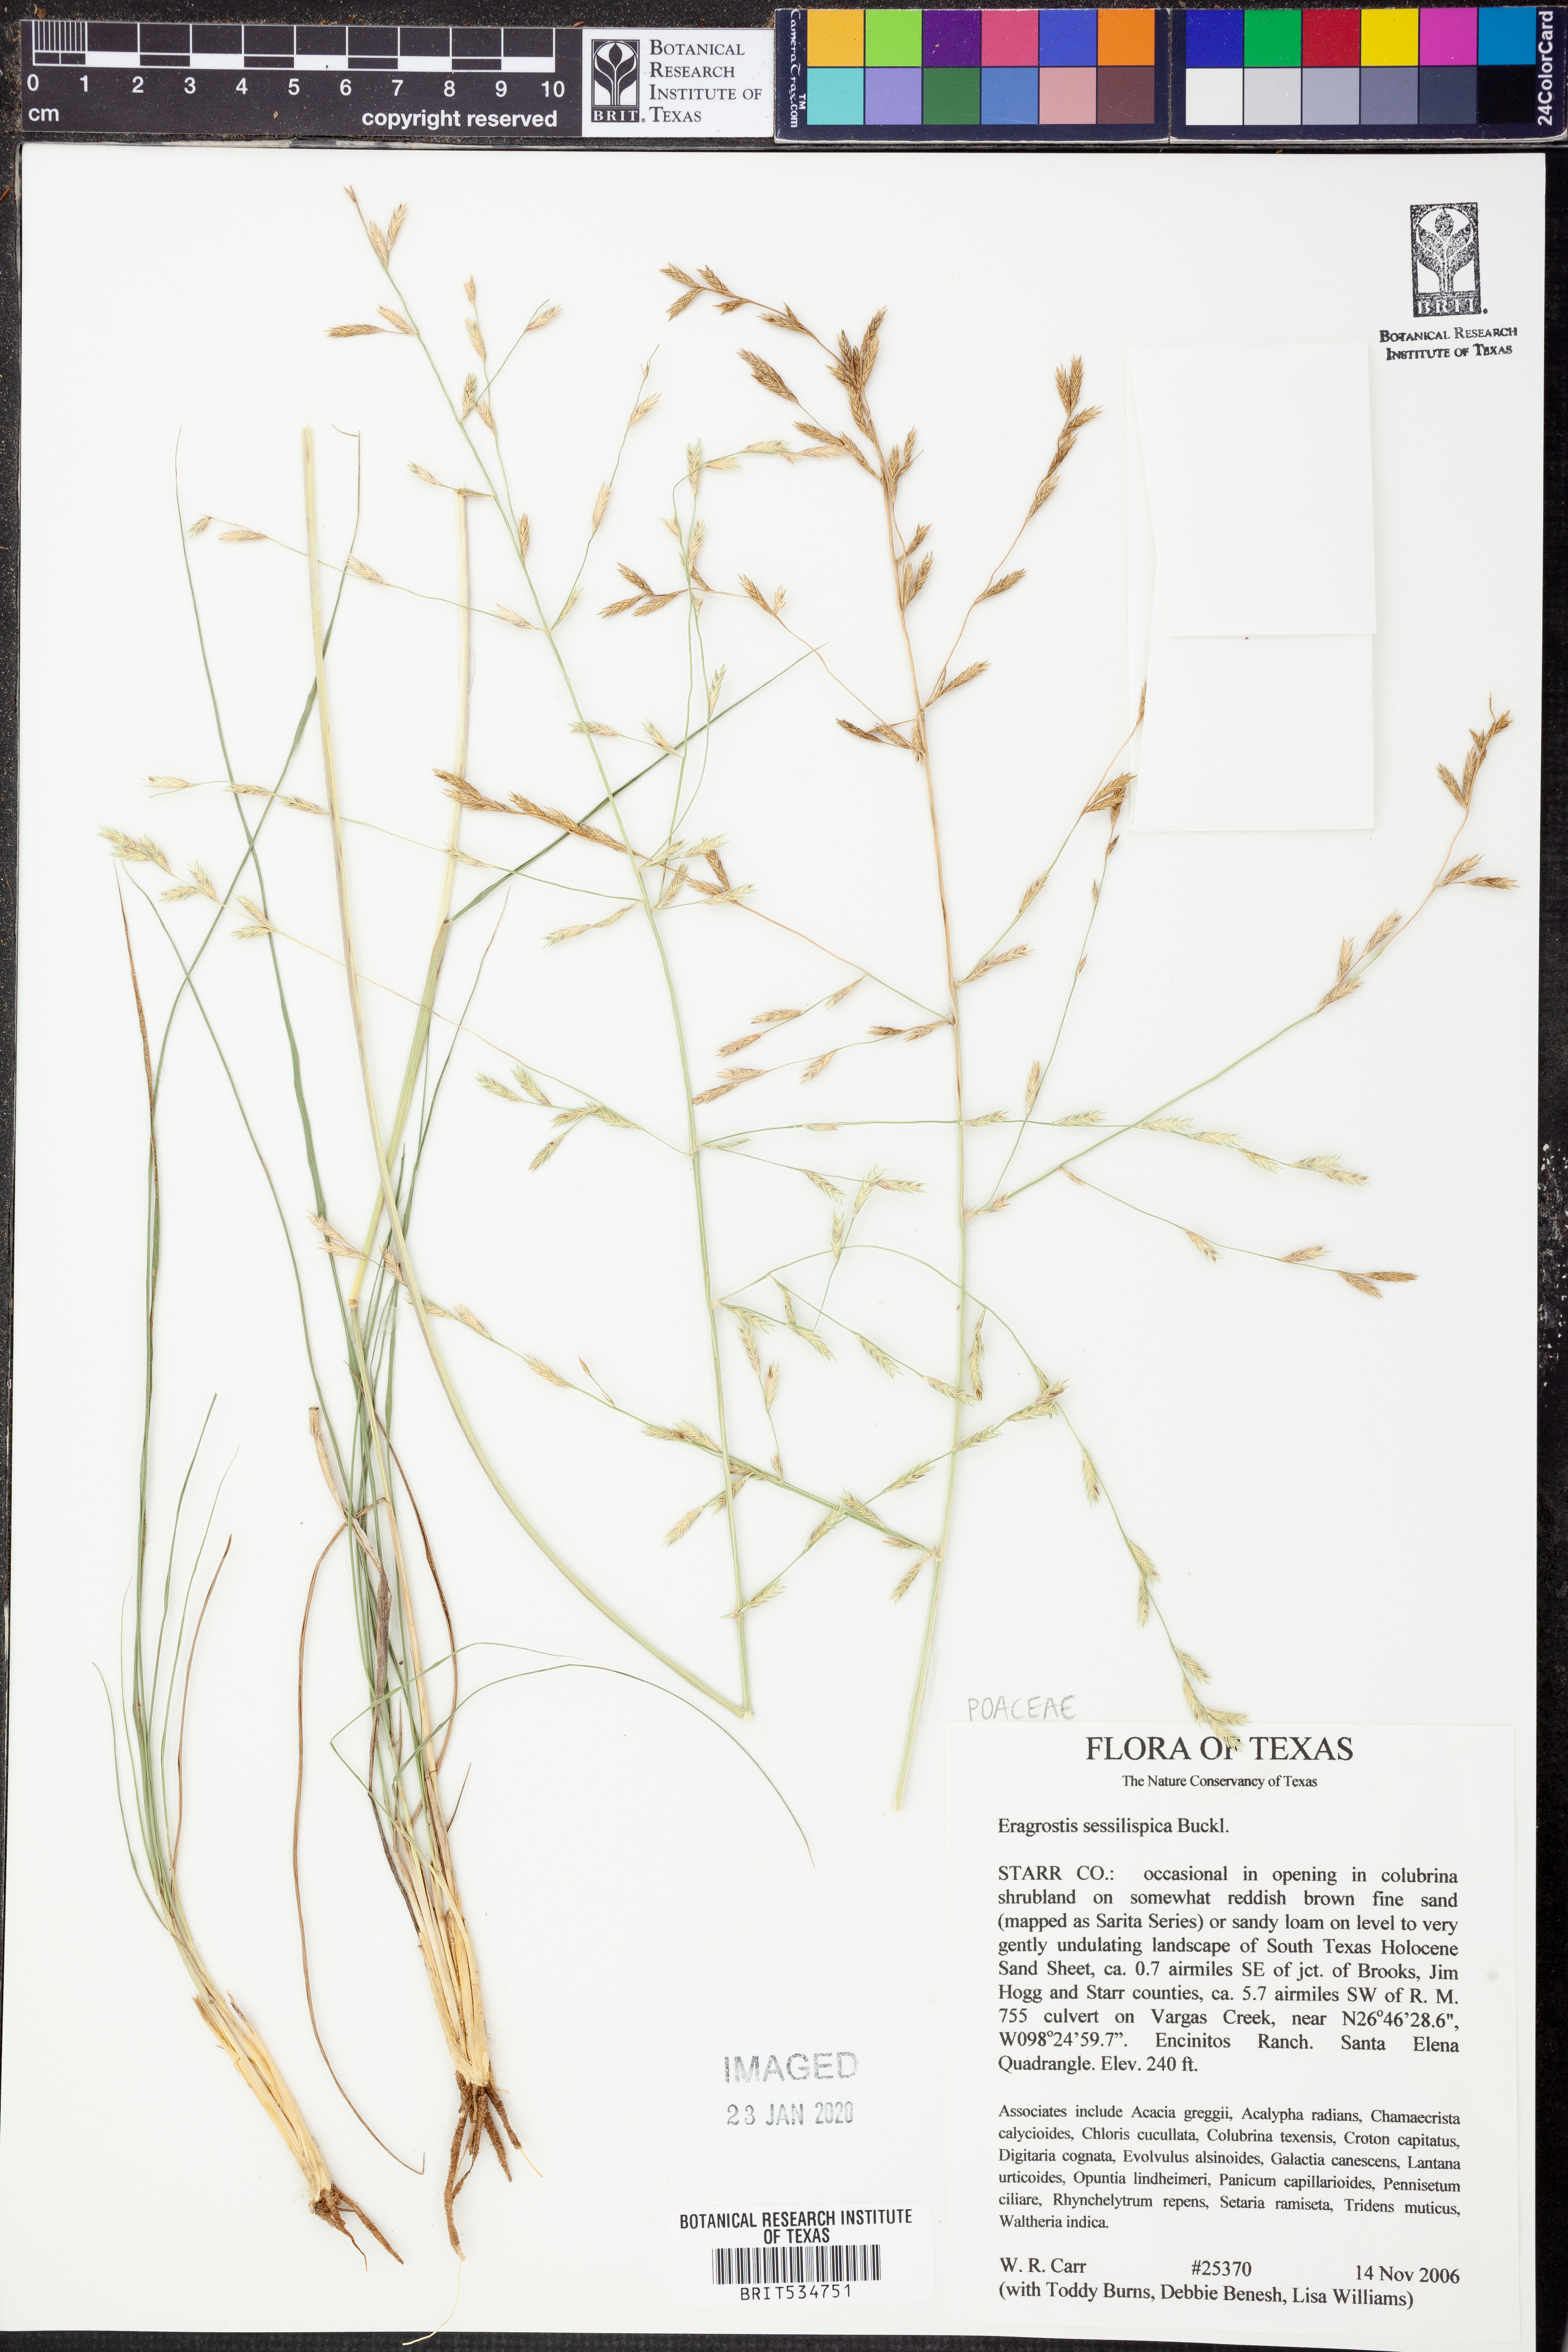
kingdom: Plantae
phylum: Tracheophyta
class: Liliopsida
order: Poales
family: Poaceae
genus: Eragrostis
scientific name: Eragrostis sessilispica
